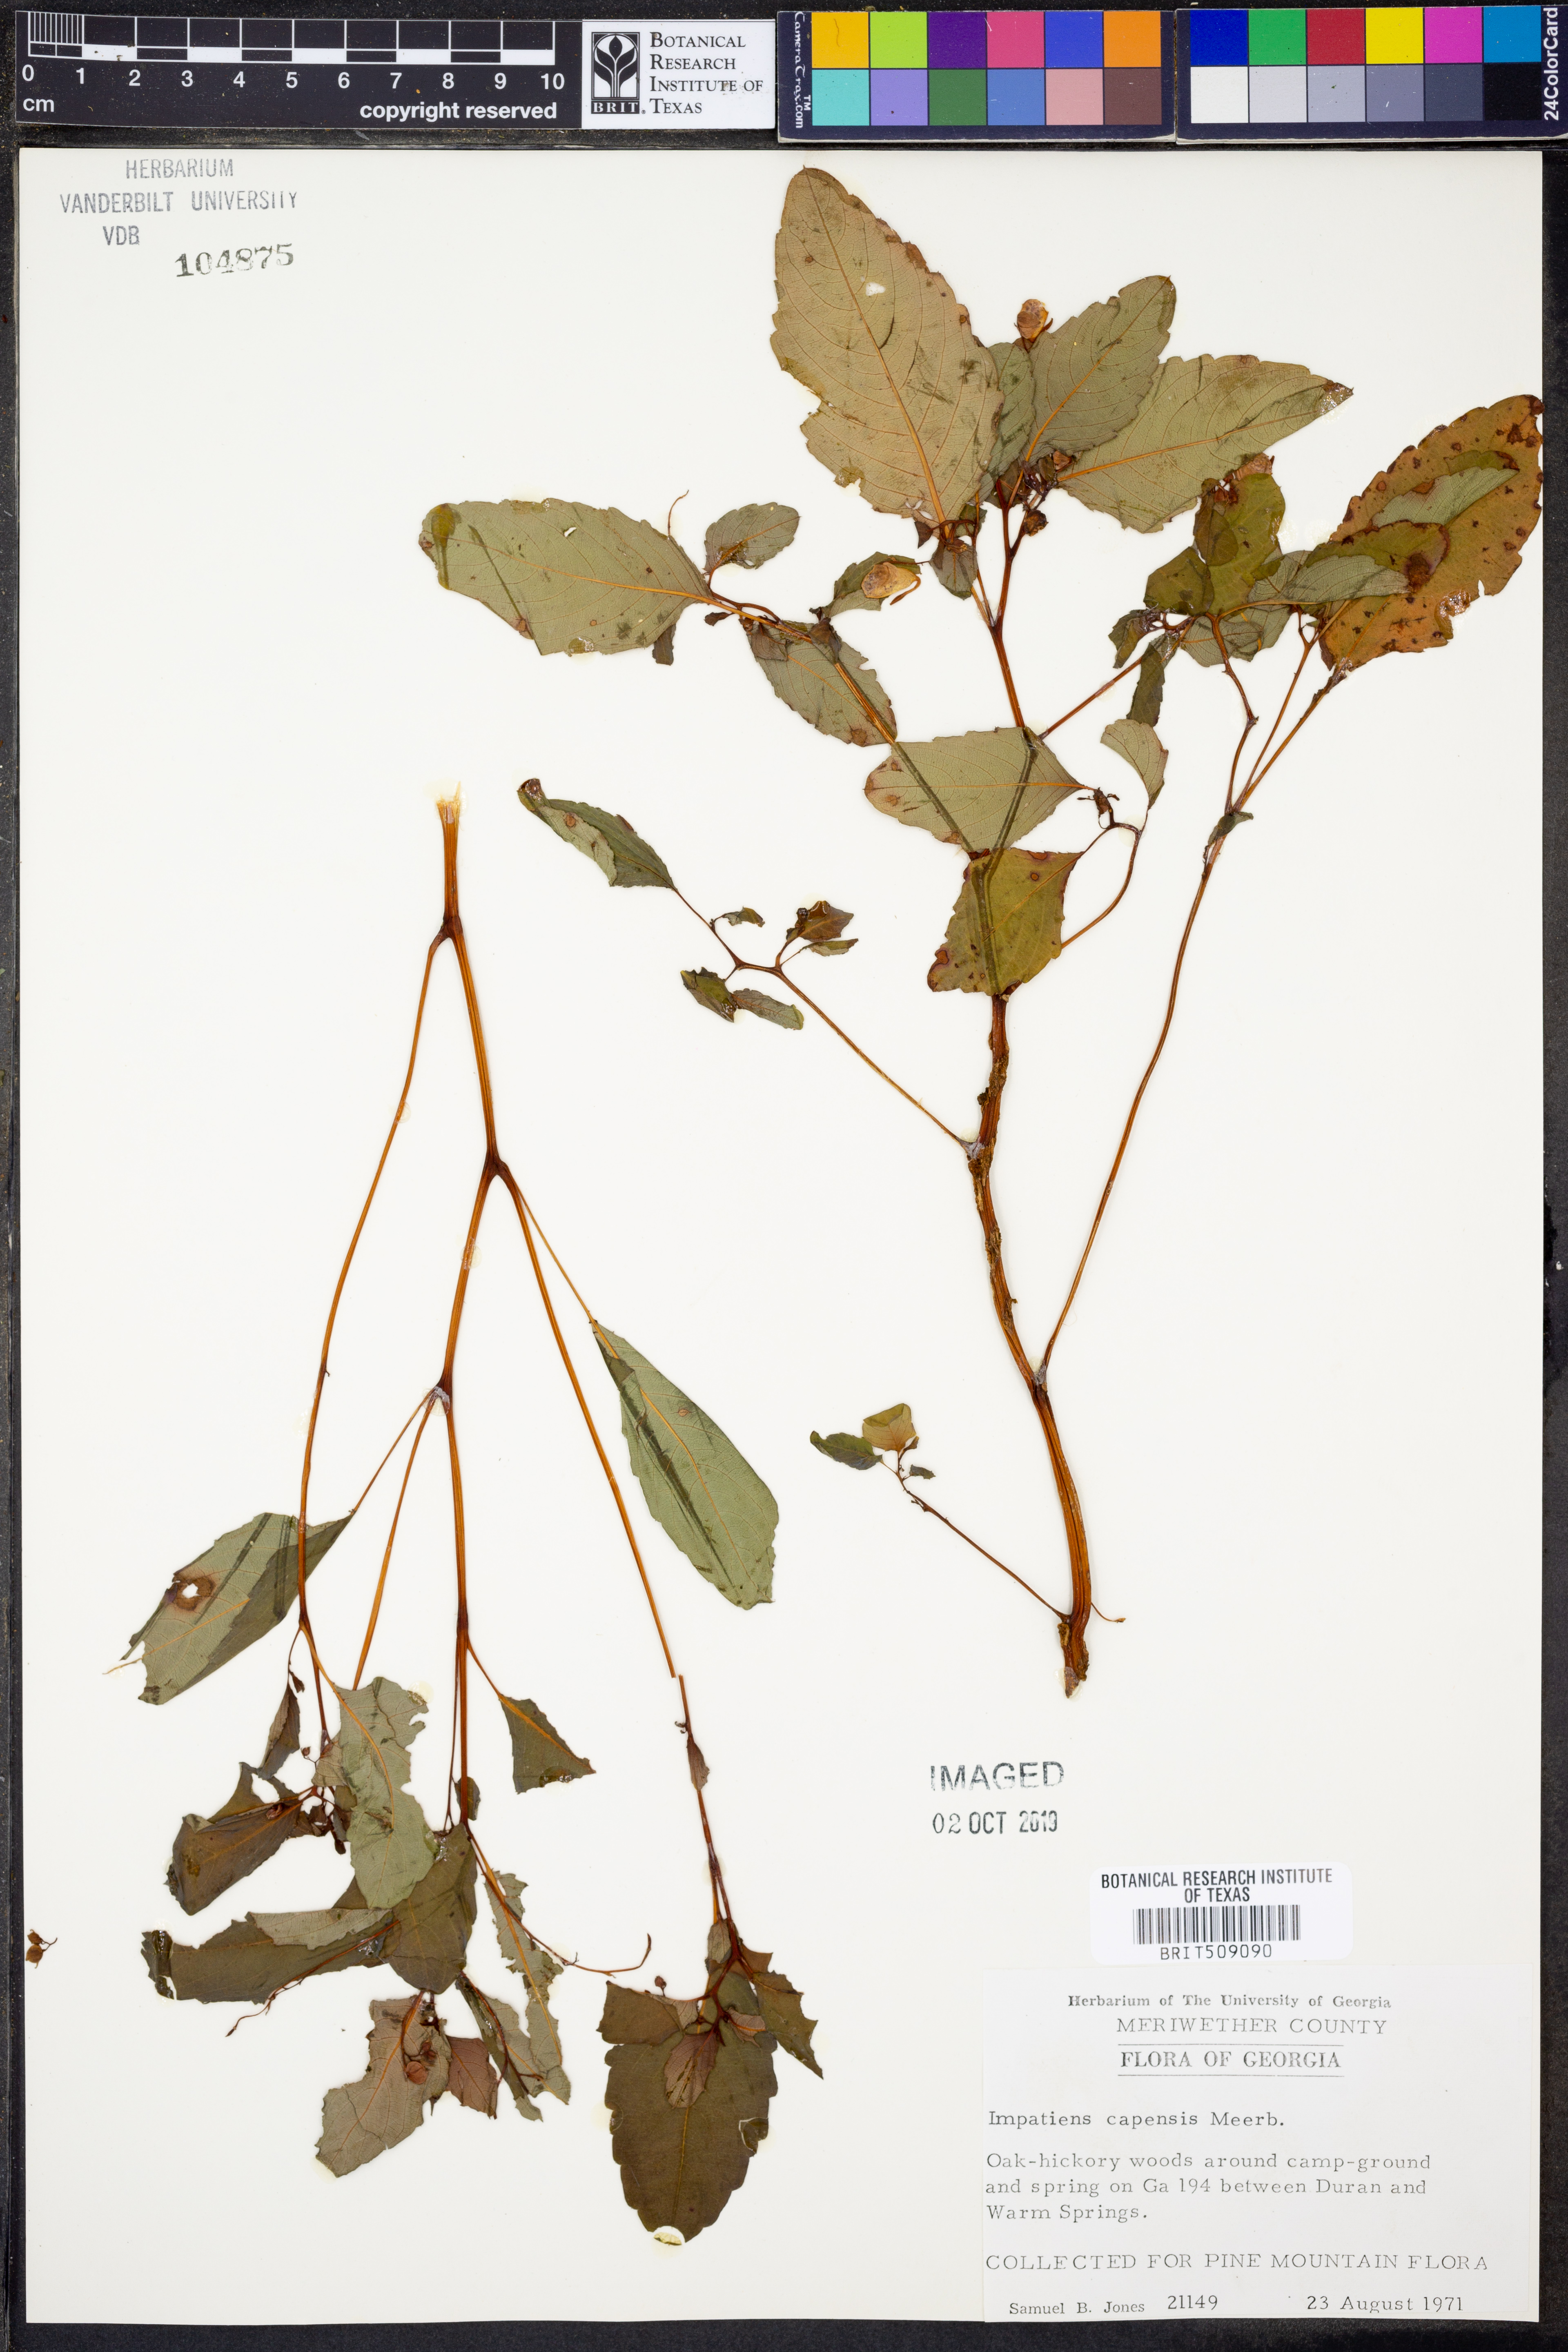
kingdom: Plantae
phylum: Tracheophyta
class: Magnoliopsida
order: Ericales
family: Balsaminaceae
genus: Impatiens
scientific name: Impatiens capensis
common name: Orange balsam
